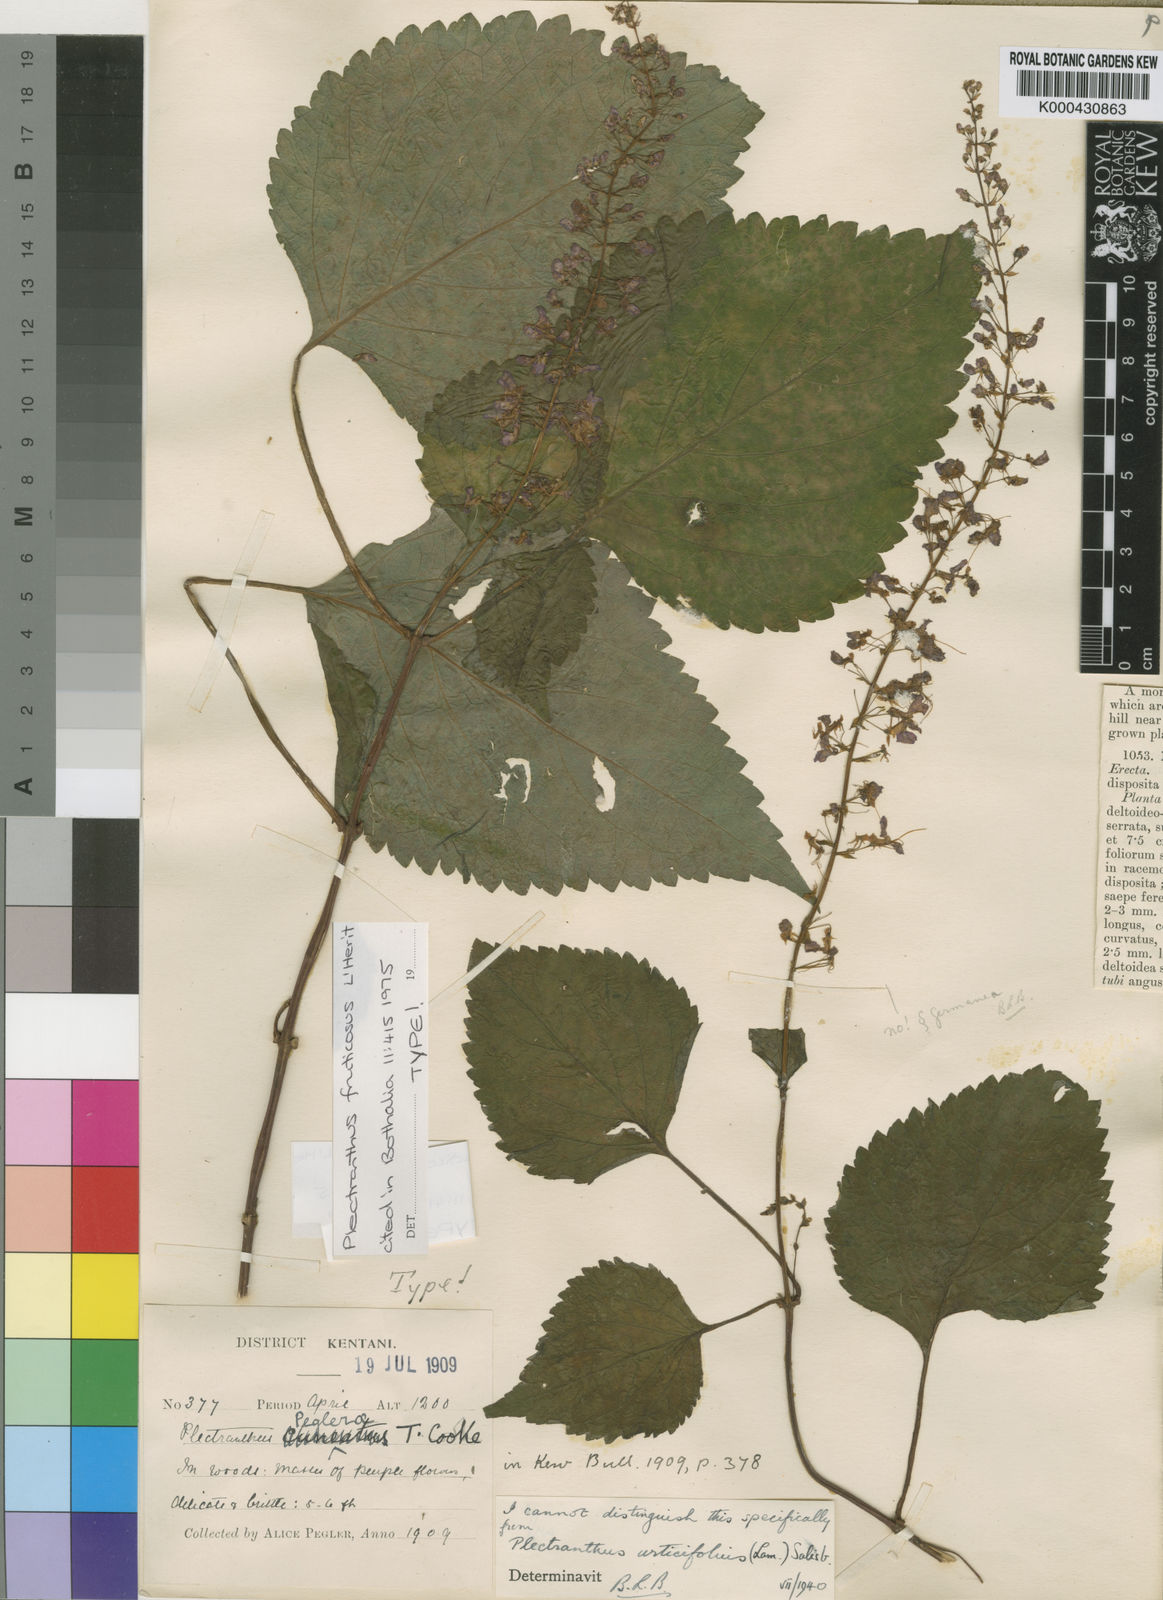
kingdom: Plantae
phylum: Tracheophyta
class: Magnoliopsida
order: Lamiales
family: Lamiaceae
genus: Plectranthus
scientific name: Plectranthus
